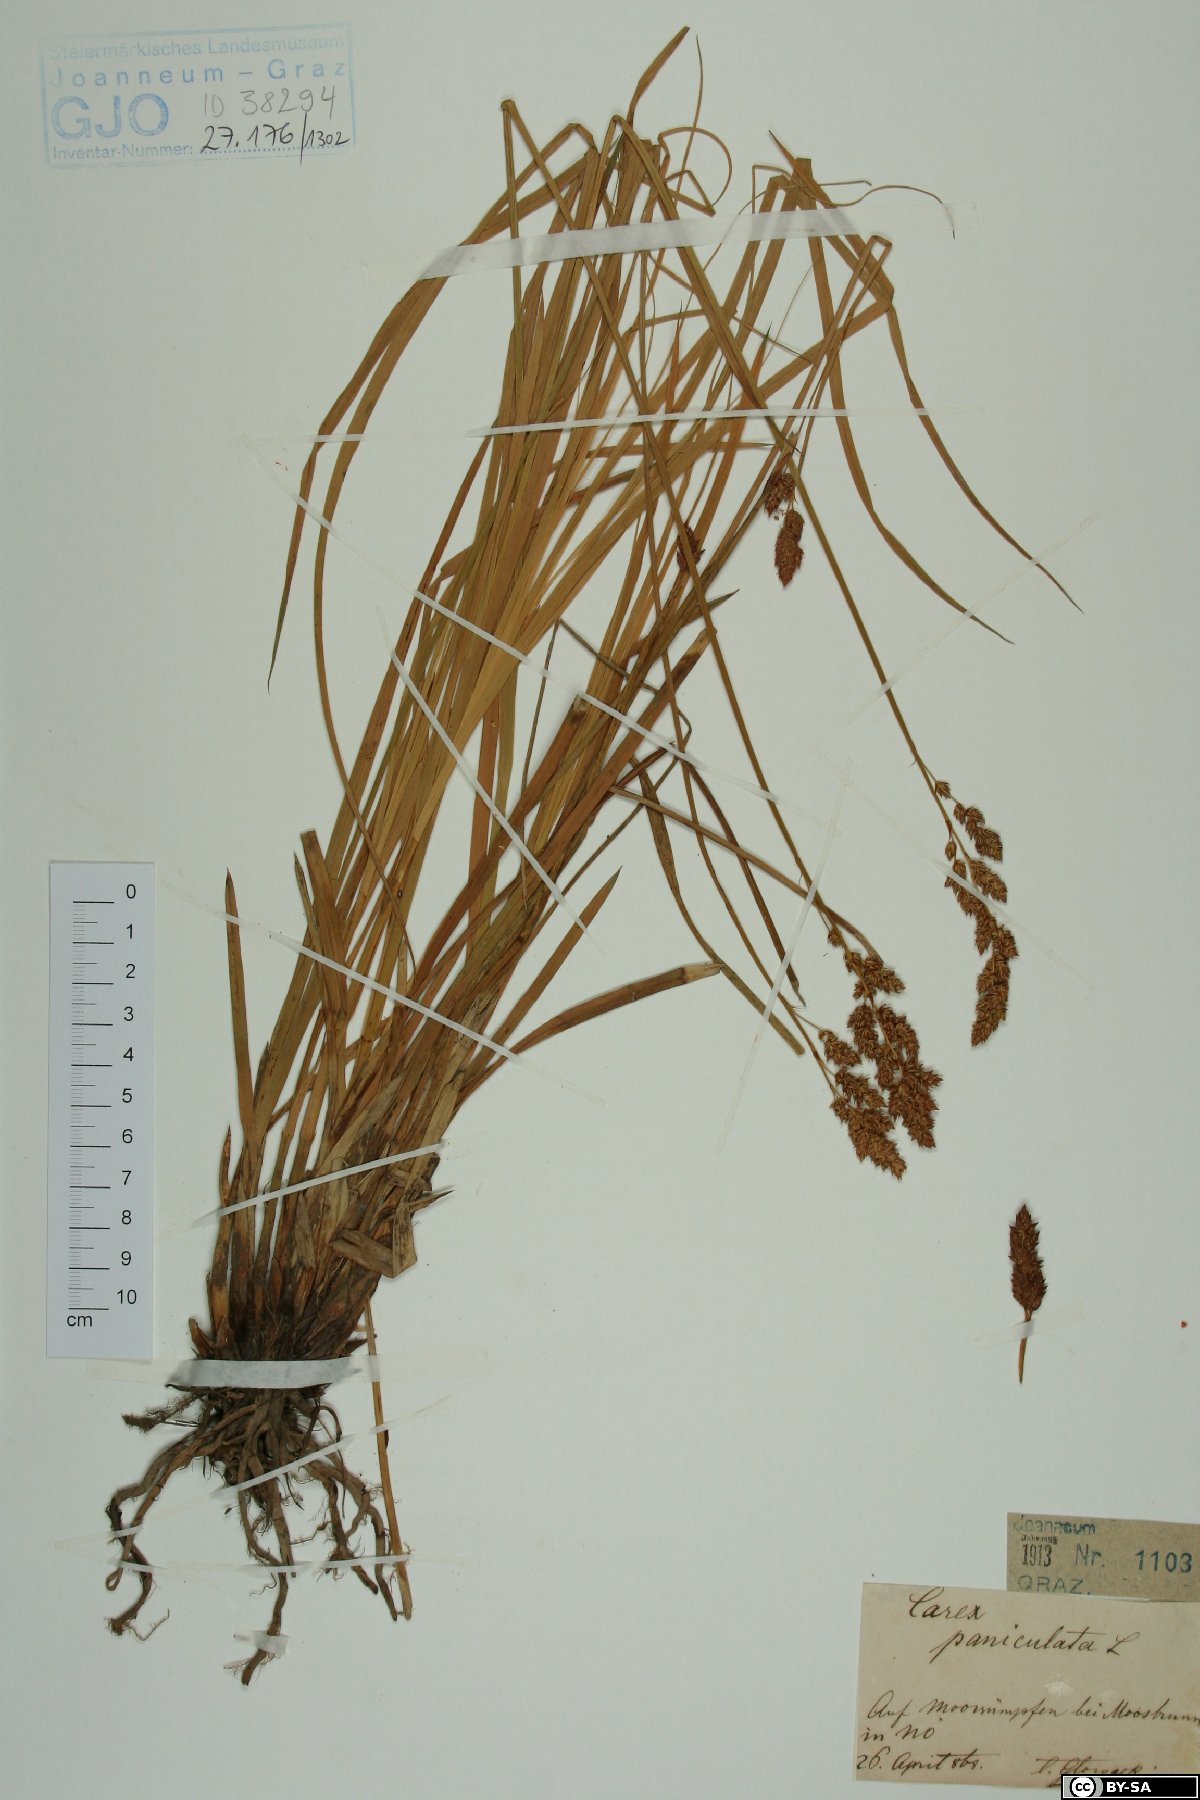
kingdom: Plantae
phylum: Tracheophyta
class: Liliopsida
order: Poales
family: Cyperaceae
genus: Carex
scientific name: Carex paniculata
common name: Greater tussock-sedge
